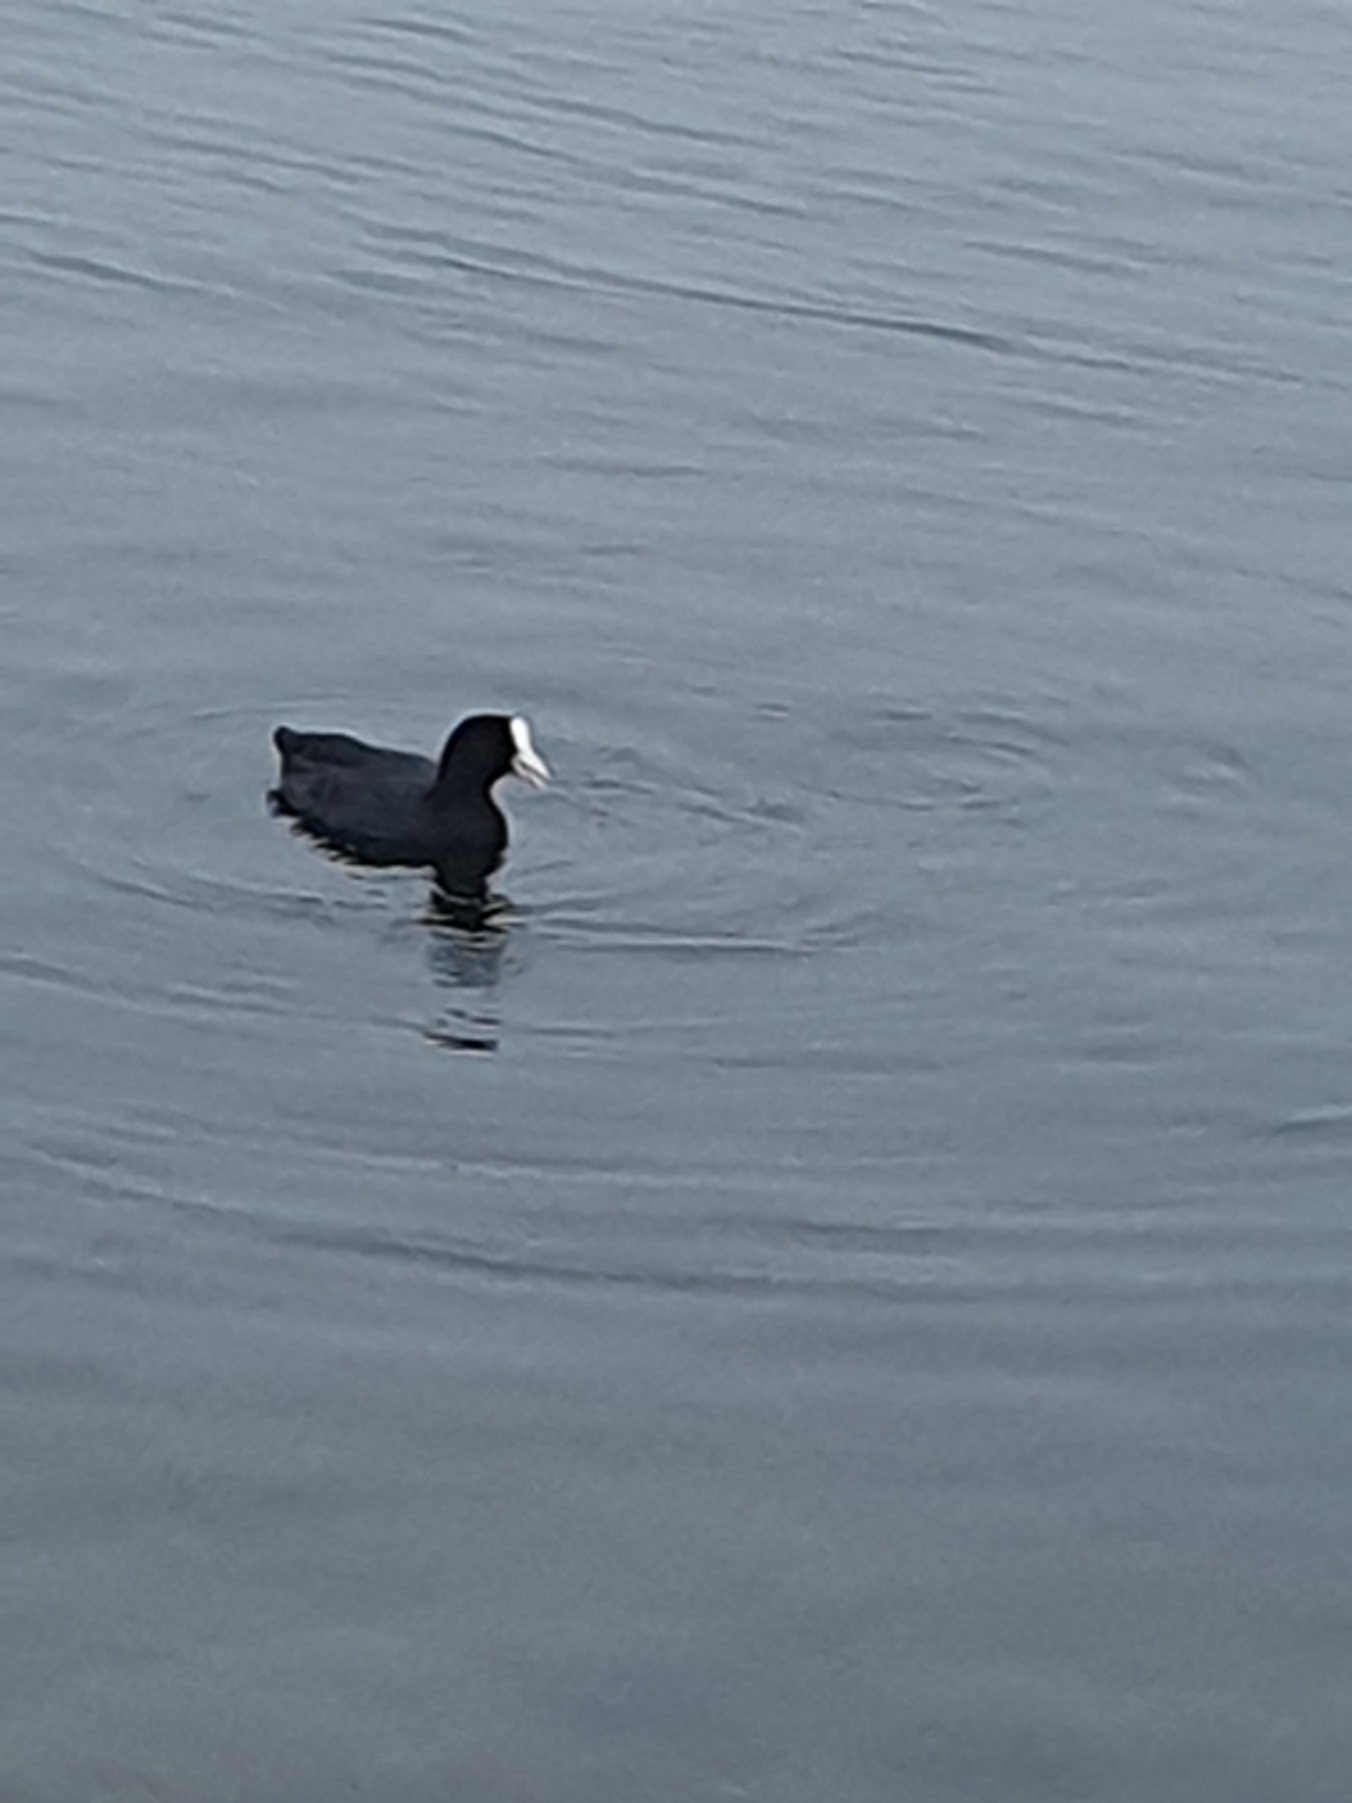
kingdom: Animalia
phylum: Chordata
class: Aves
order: Gruiformes
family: Rallidae
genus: Fulica
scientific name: Fulica atra
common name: Blishøne
